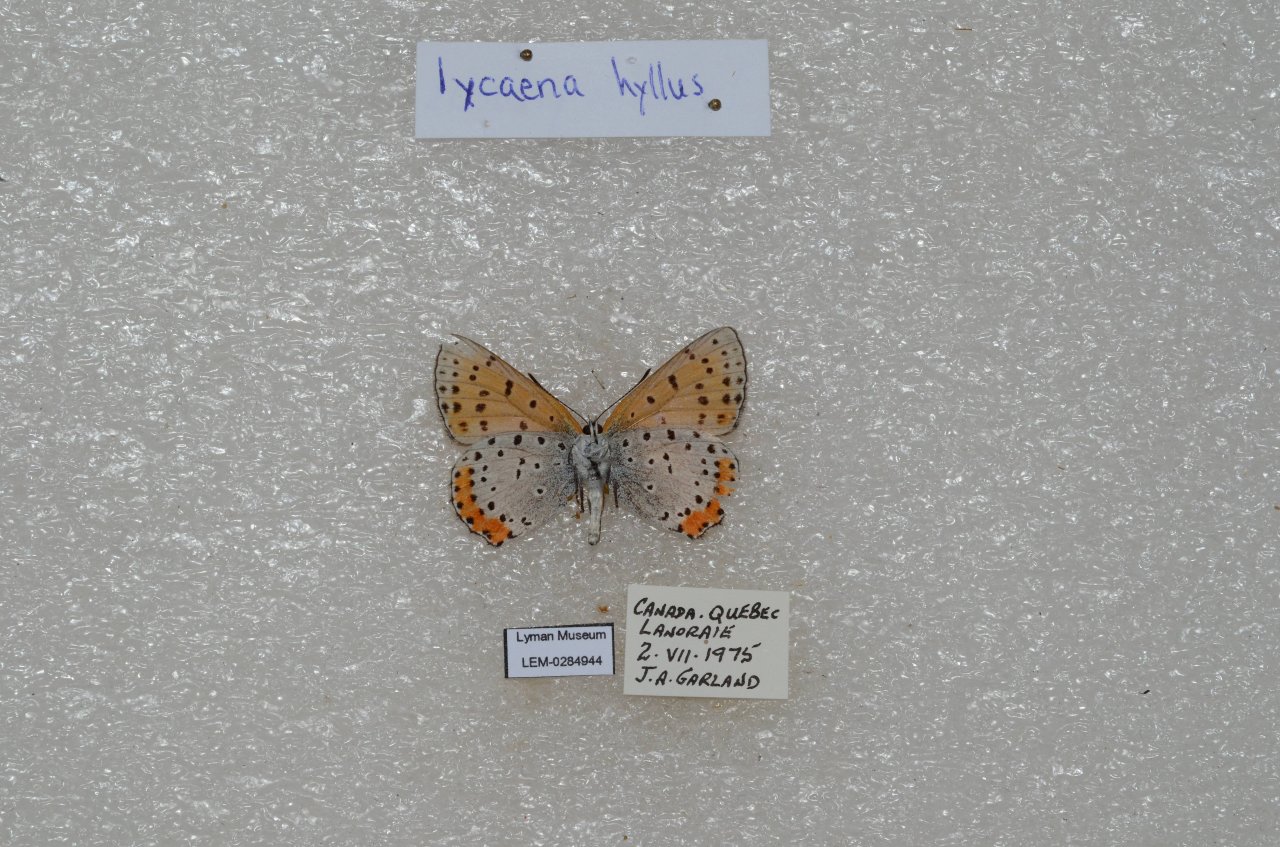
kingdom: Animalia
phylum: Arthropoda
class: Insecta
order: Lepidoptera
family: Sesiidae
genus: Sesia
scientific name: Sesia Lycaena hyllus
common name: Bronze Copper
